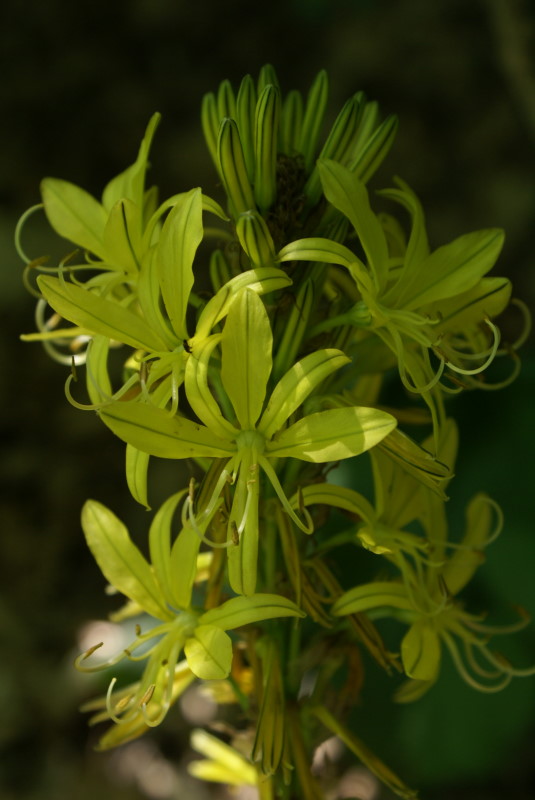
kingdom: Plantae
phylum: Tracheophyta
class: Liliopsida
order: Asparagales
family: Asphodelaceae
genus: Asphodeline
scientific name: Asphodeline lutea
